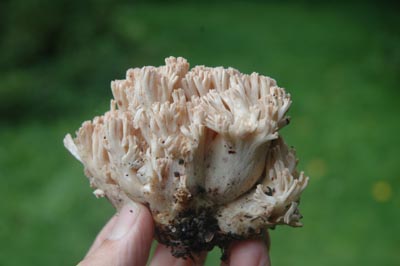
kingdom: Fungi
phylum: Basidiomycota
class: Agaricomycetes
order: Gomphales
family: Gomphaceae
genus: Ramaria
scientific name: Ramaria botrytis
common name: drue-koralsvamp
